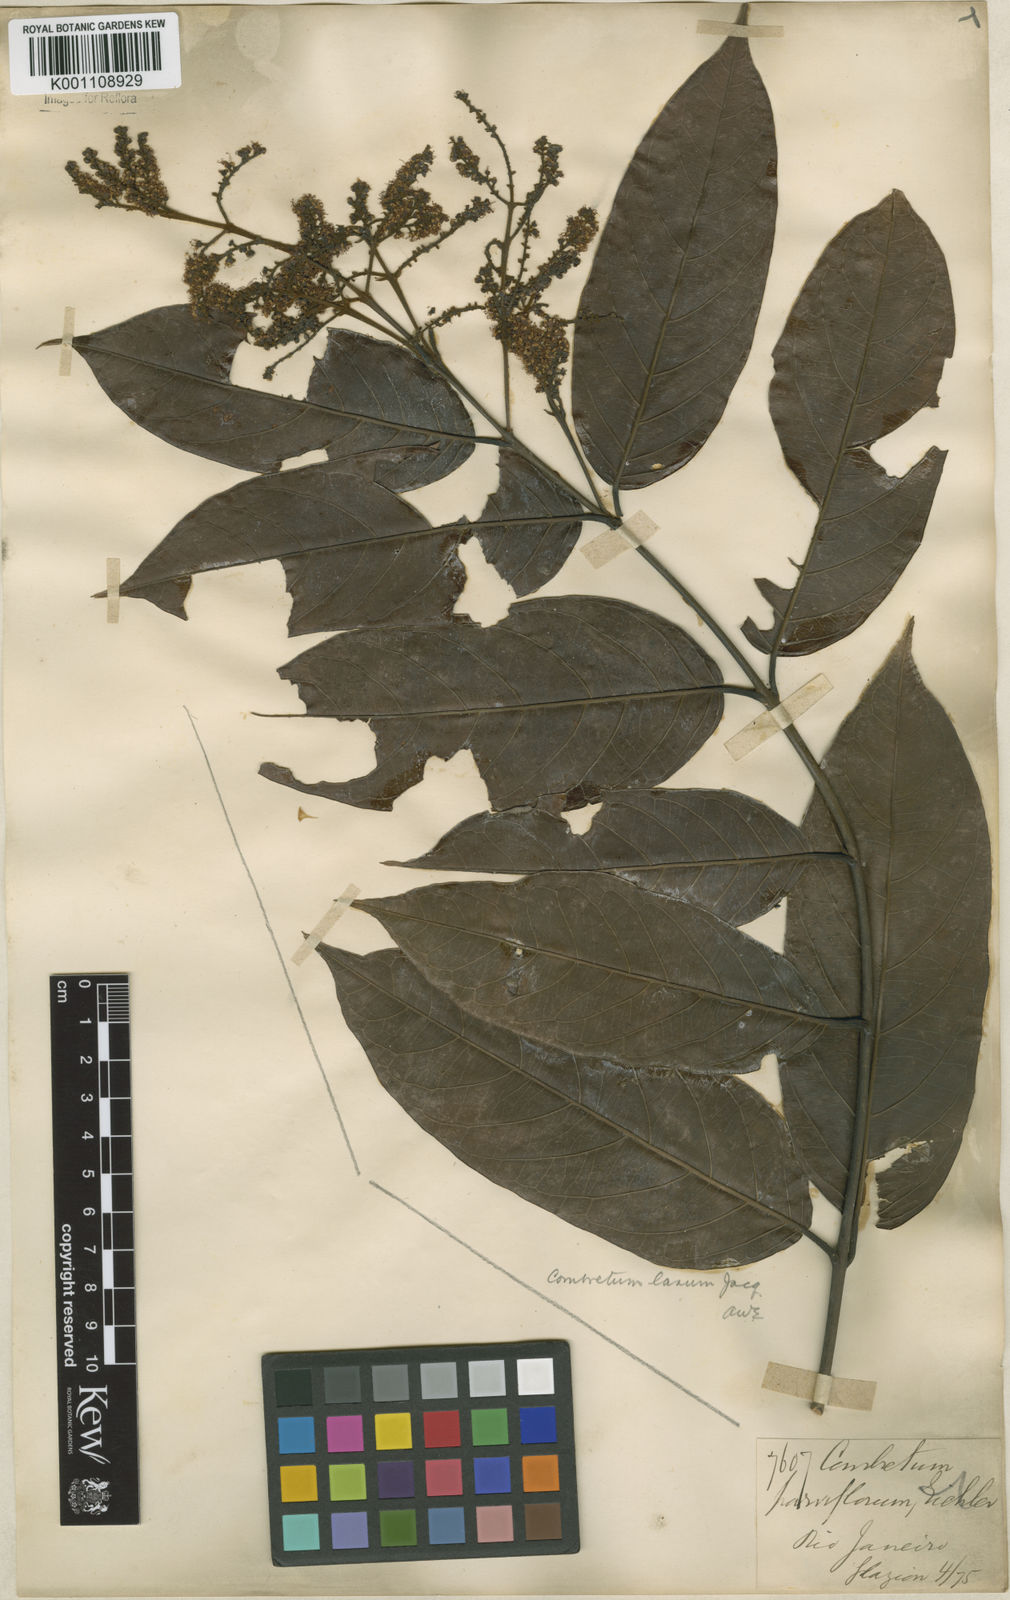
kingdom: Plantae
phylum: Tracheophyta
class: Magnoliopsida
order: Myrtales
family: Combretaceae
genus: Combretum
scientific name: Combretum laxum
